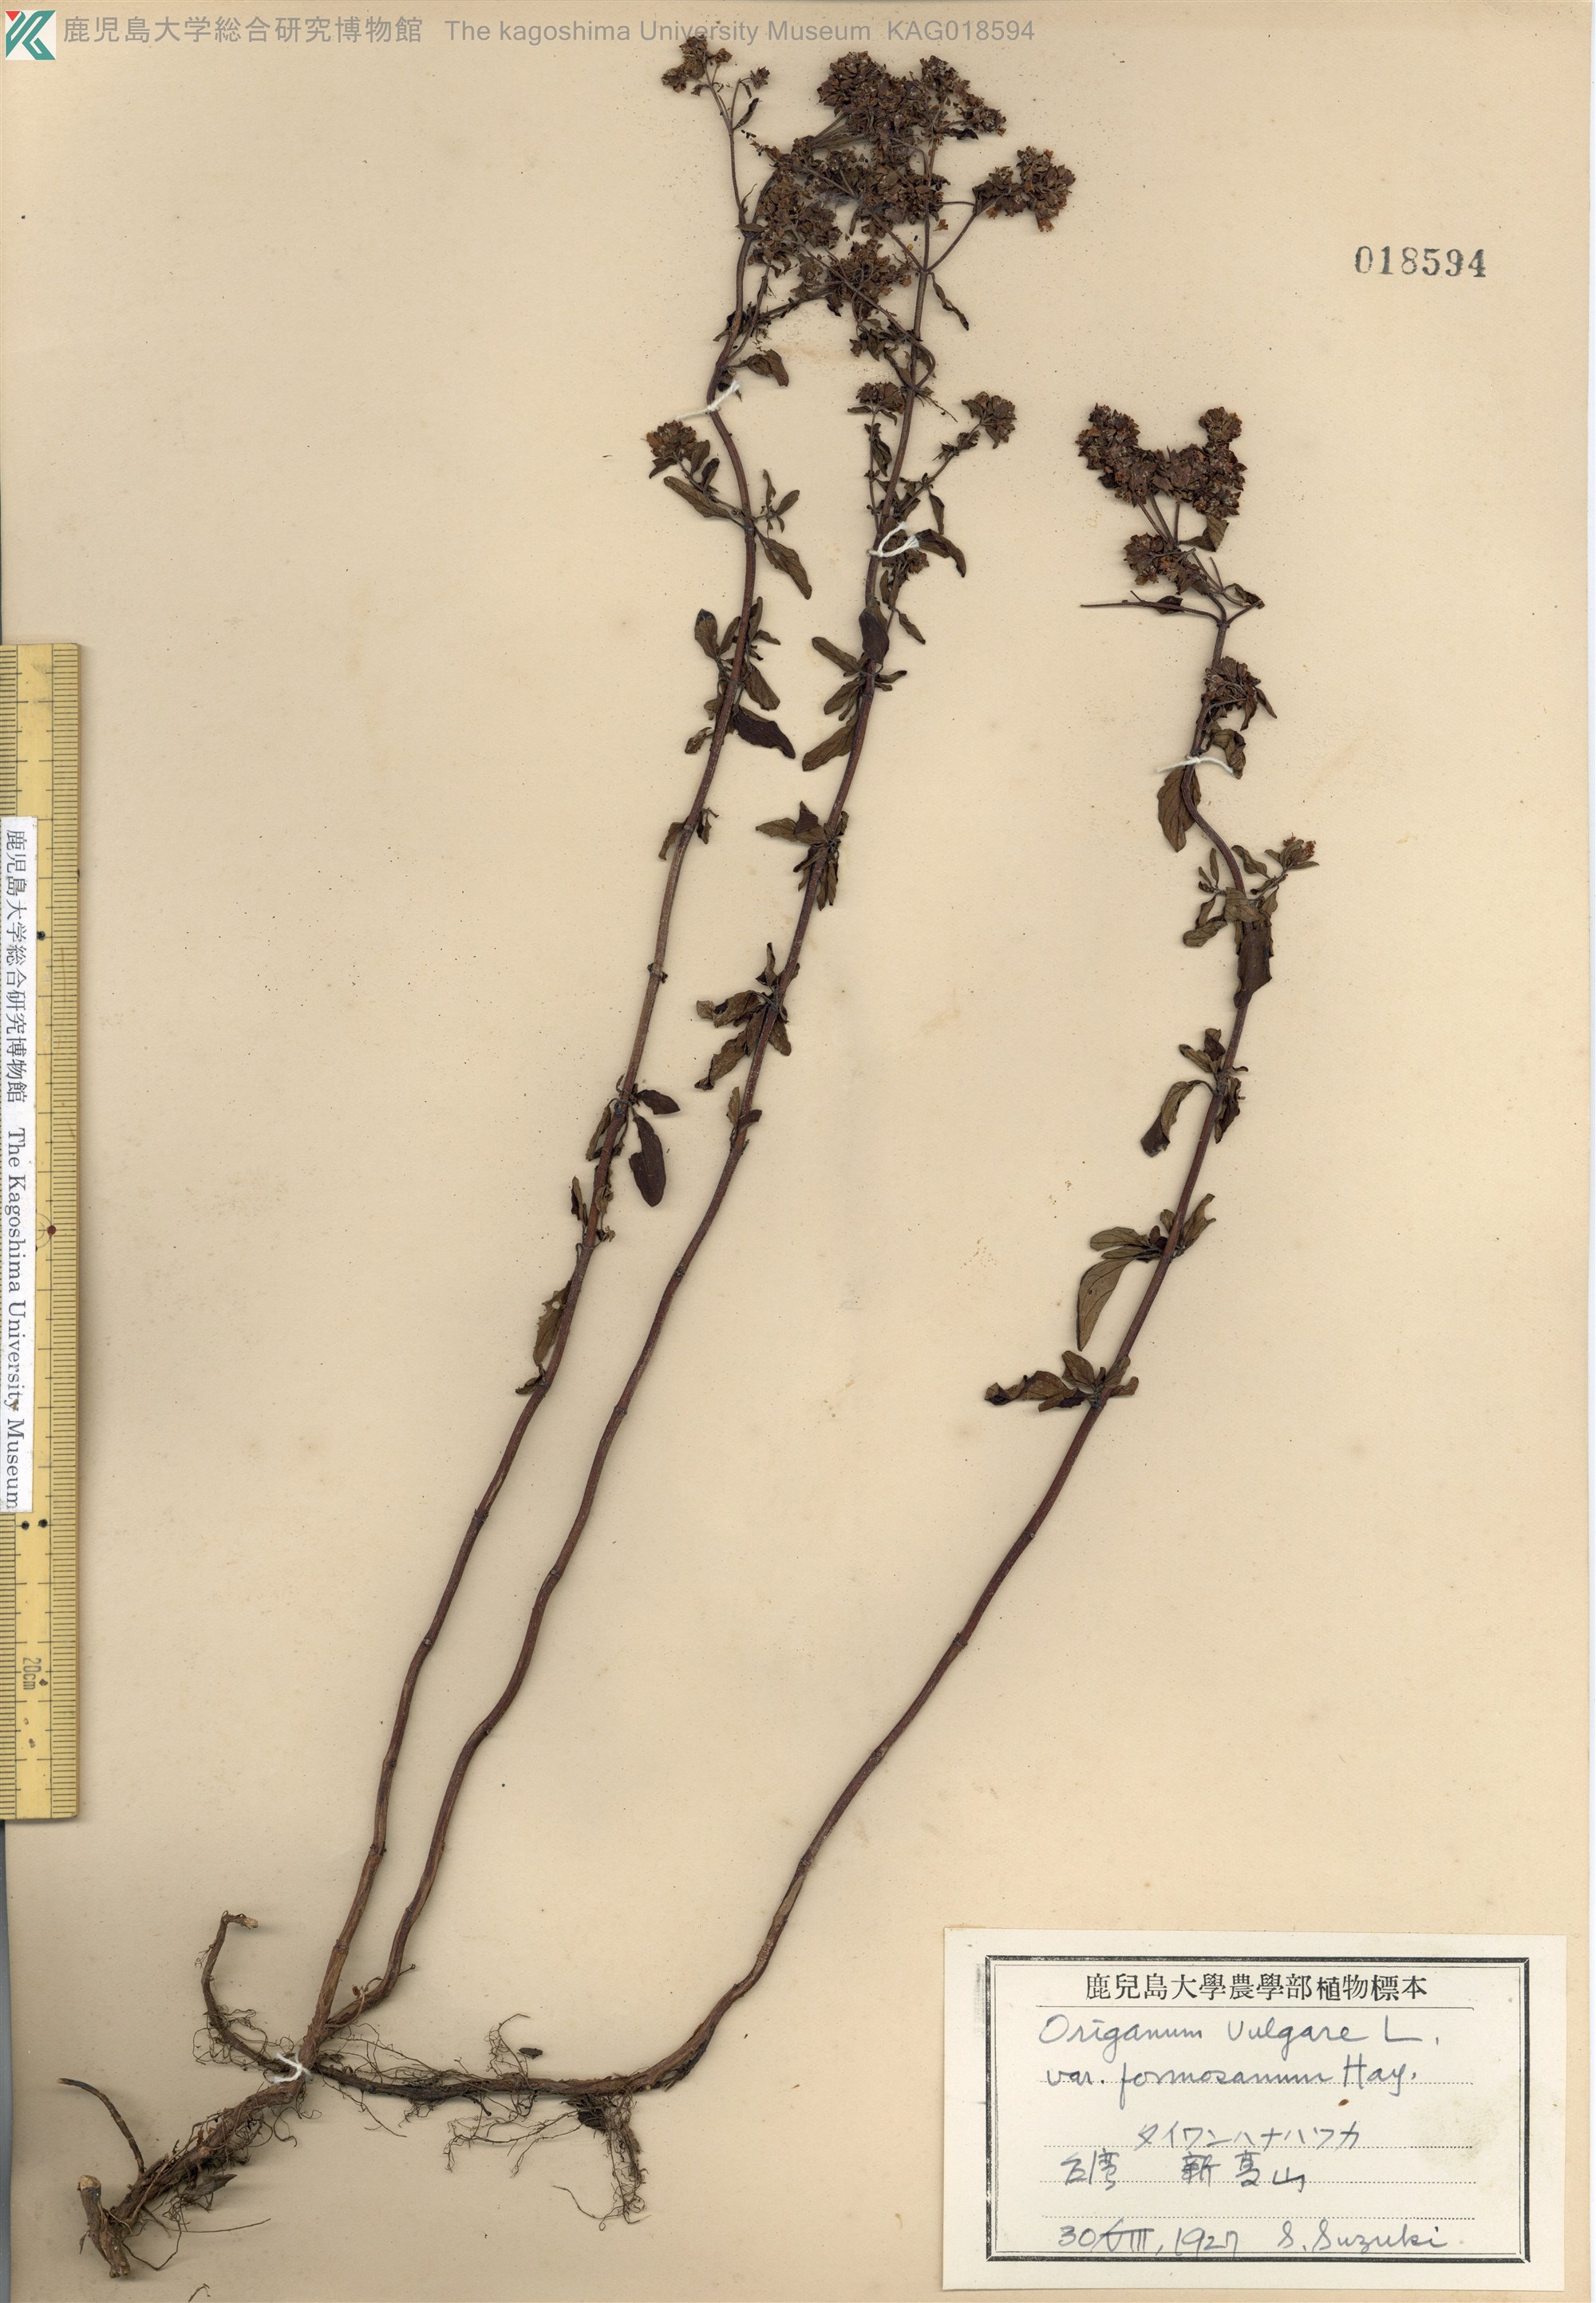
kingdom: Plantae
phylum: Tracheophyta
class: Magnoliopsida
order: Lamiales
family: Lamiaceae
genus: Origanum
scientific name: Origanum vulgare
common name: Wild marjoram
